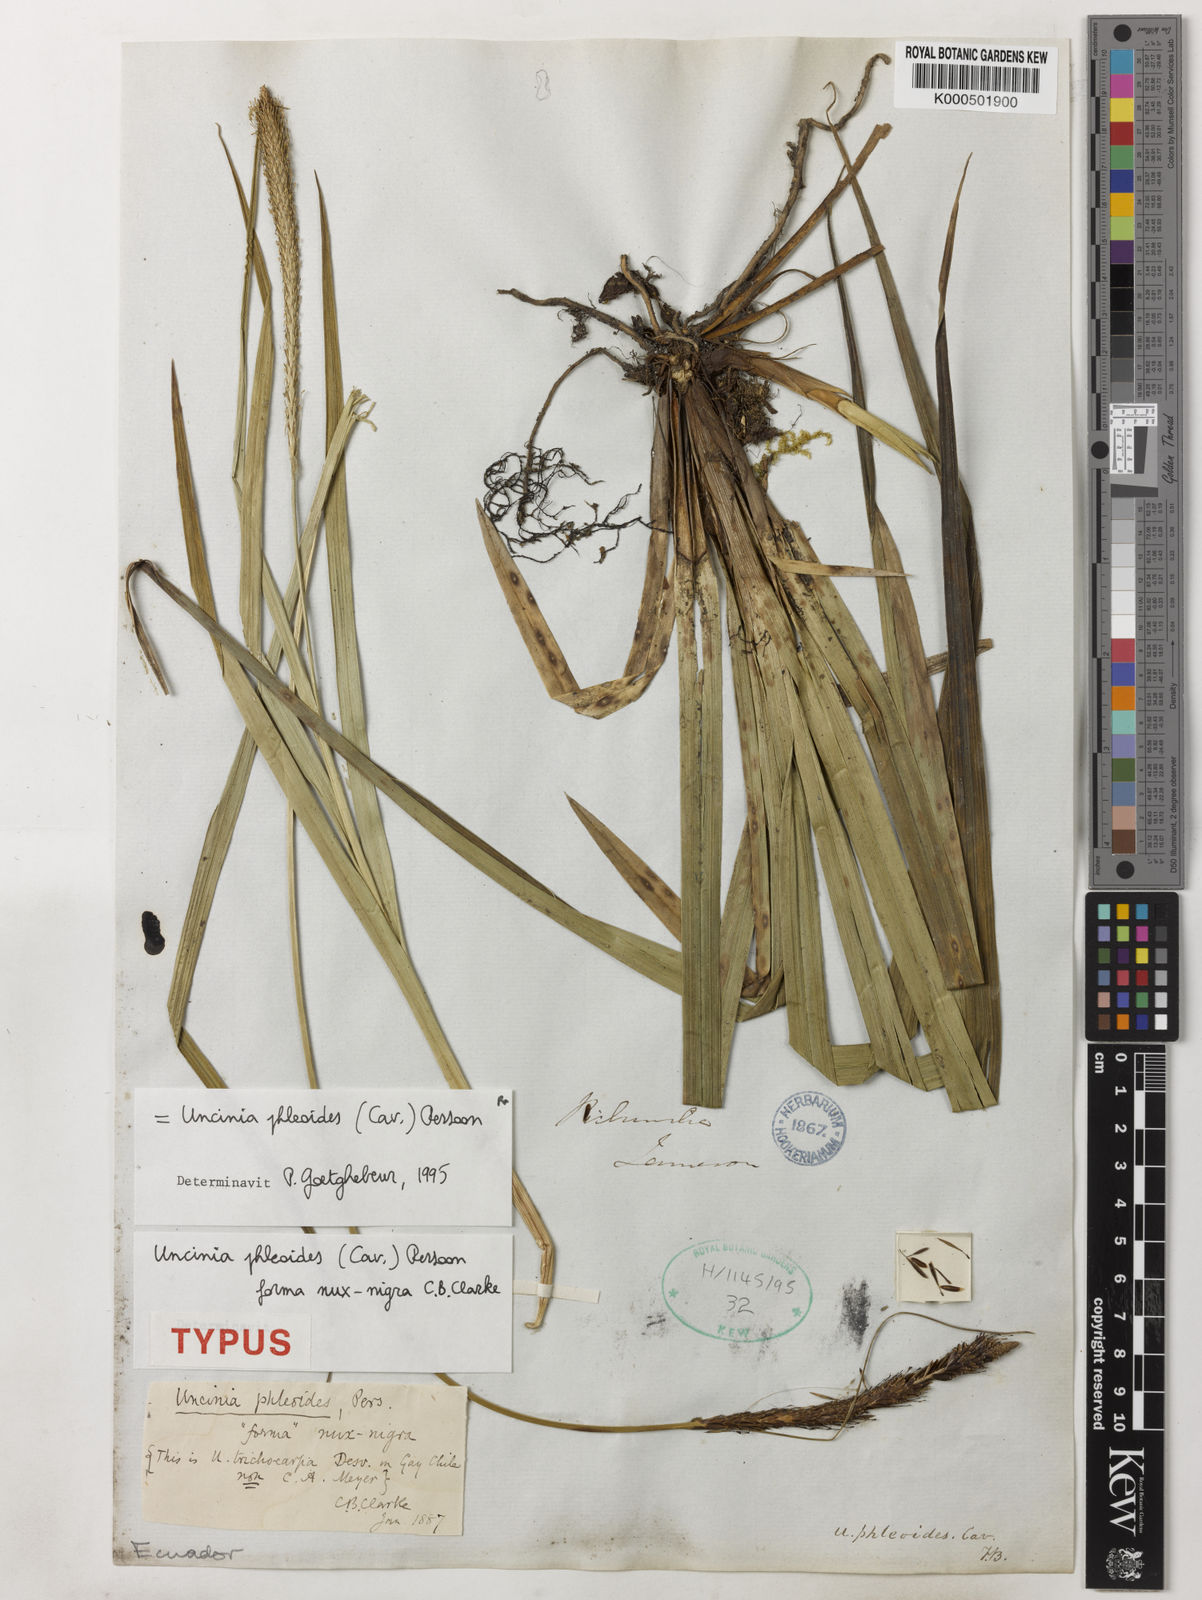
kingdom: Plantae
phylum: Tracheophyta
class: Liliopsida
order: Poales
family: Cyperaceae
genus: Carex
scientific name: Carex phleoides
